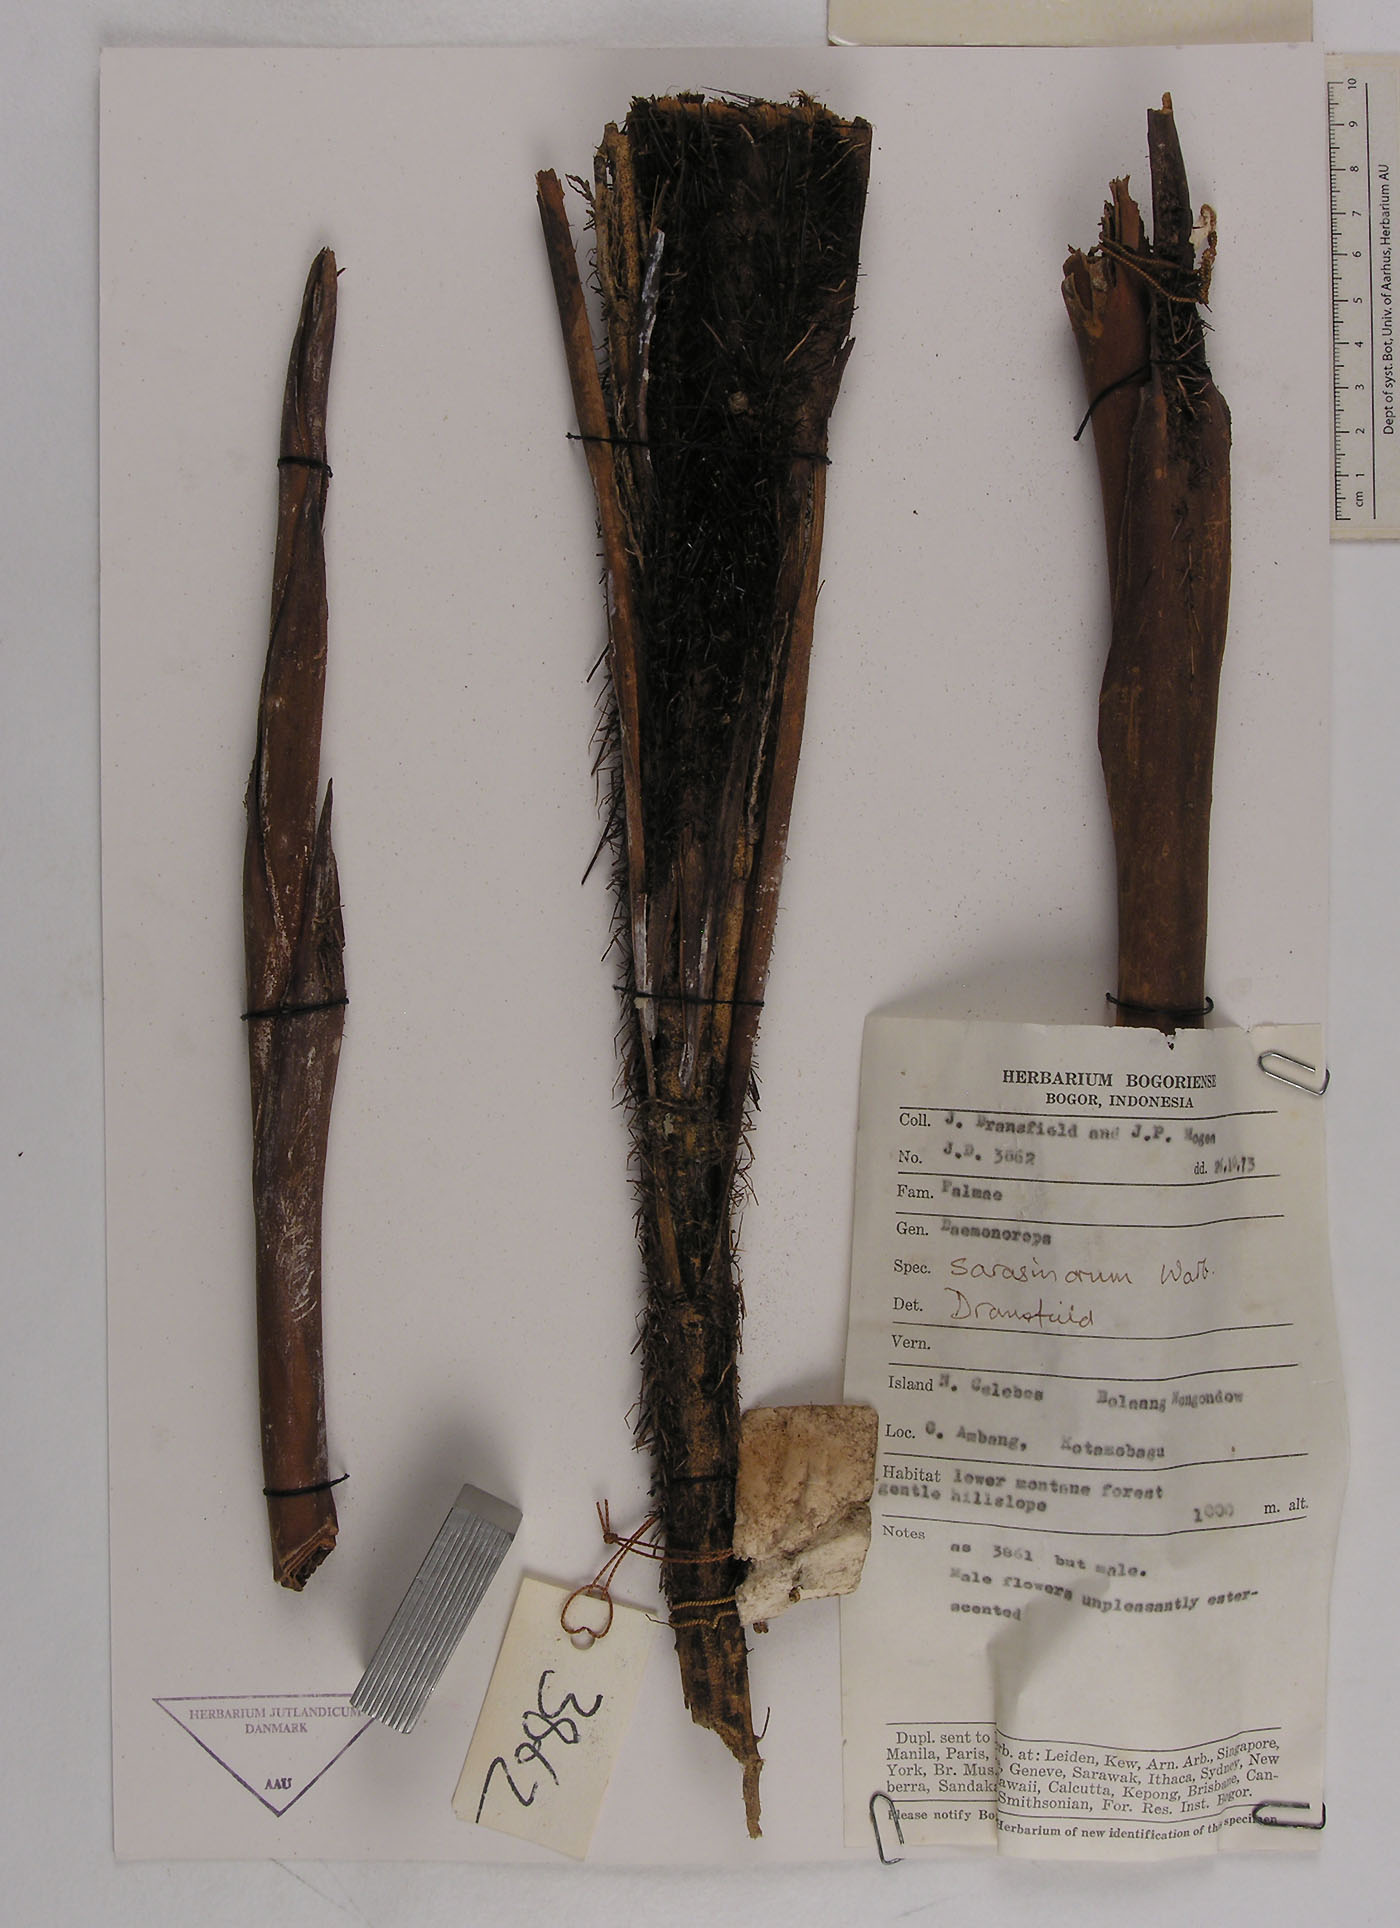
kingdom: Plantae
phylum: Tracheophyta
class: Liliopsida
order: Arecales
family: Arecaceae
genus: Calamus
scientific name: Calamus macropterus
